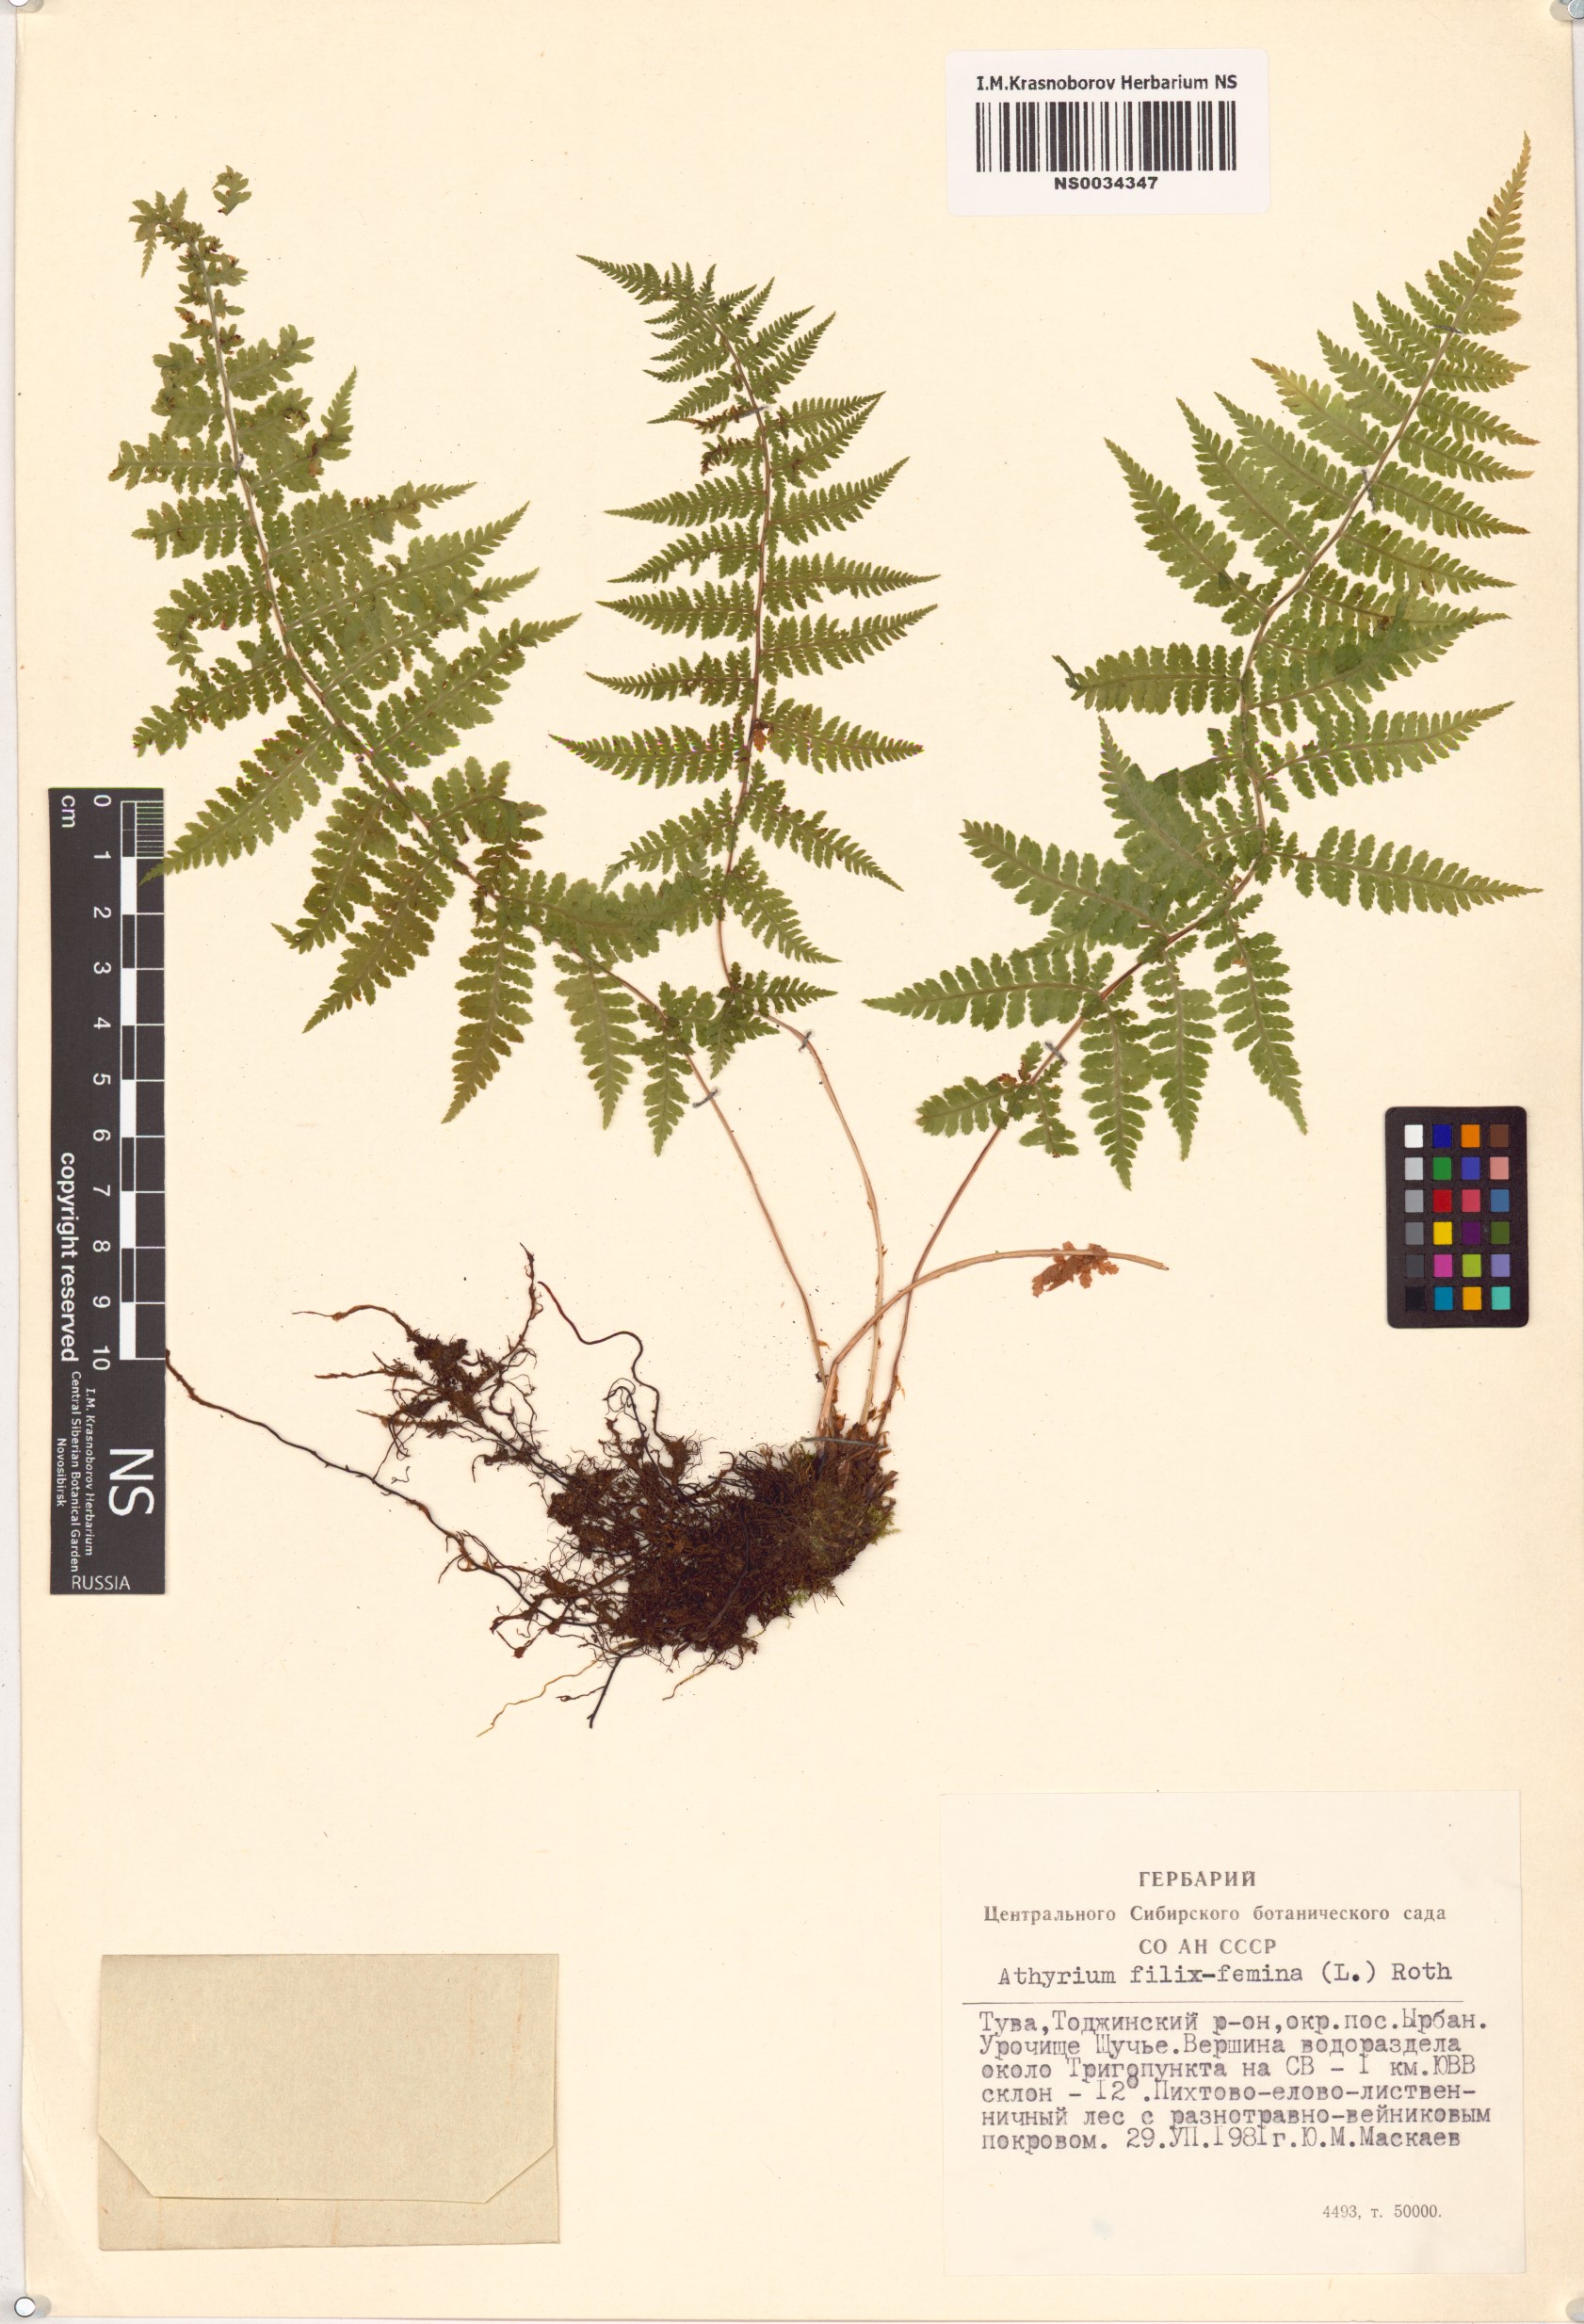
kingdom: Plantae
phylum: Tracheophyta
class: Polypodiopsida
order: Polypodiales
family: Athyriaceae
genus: Athyrium
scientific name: Athyrium filix-femina
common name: Lady fern
